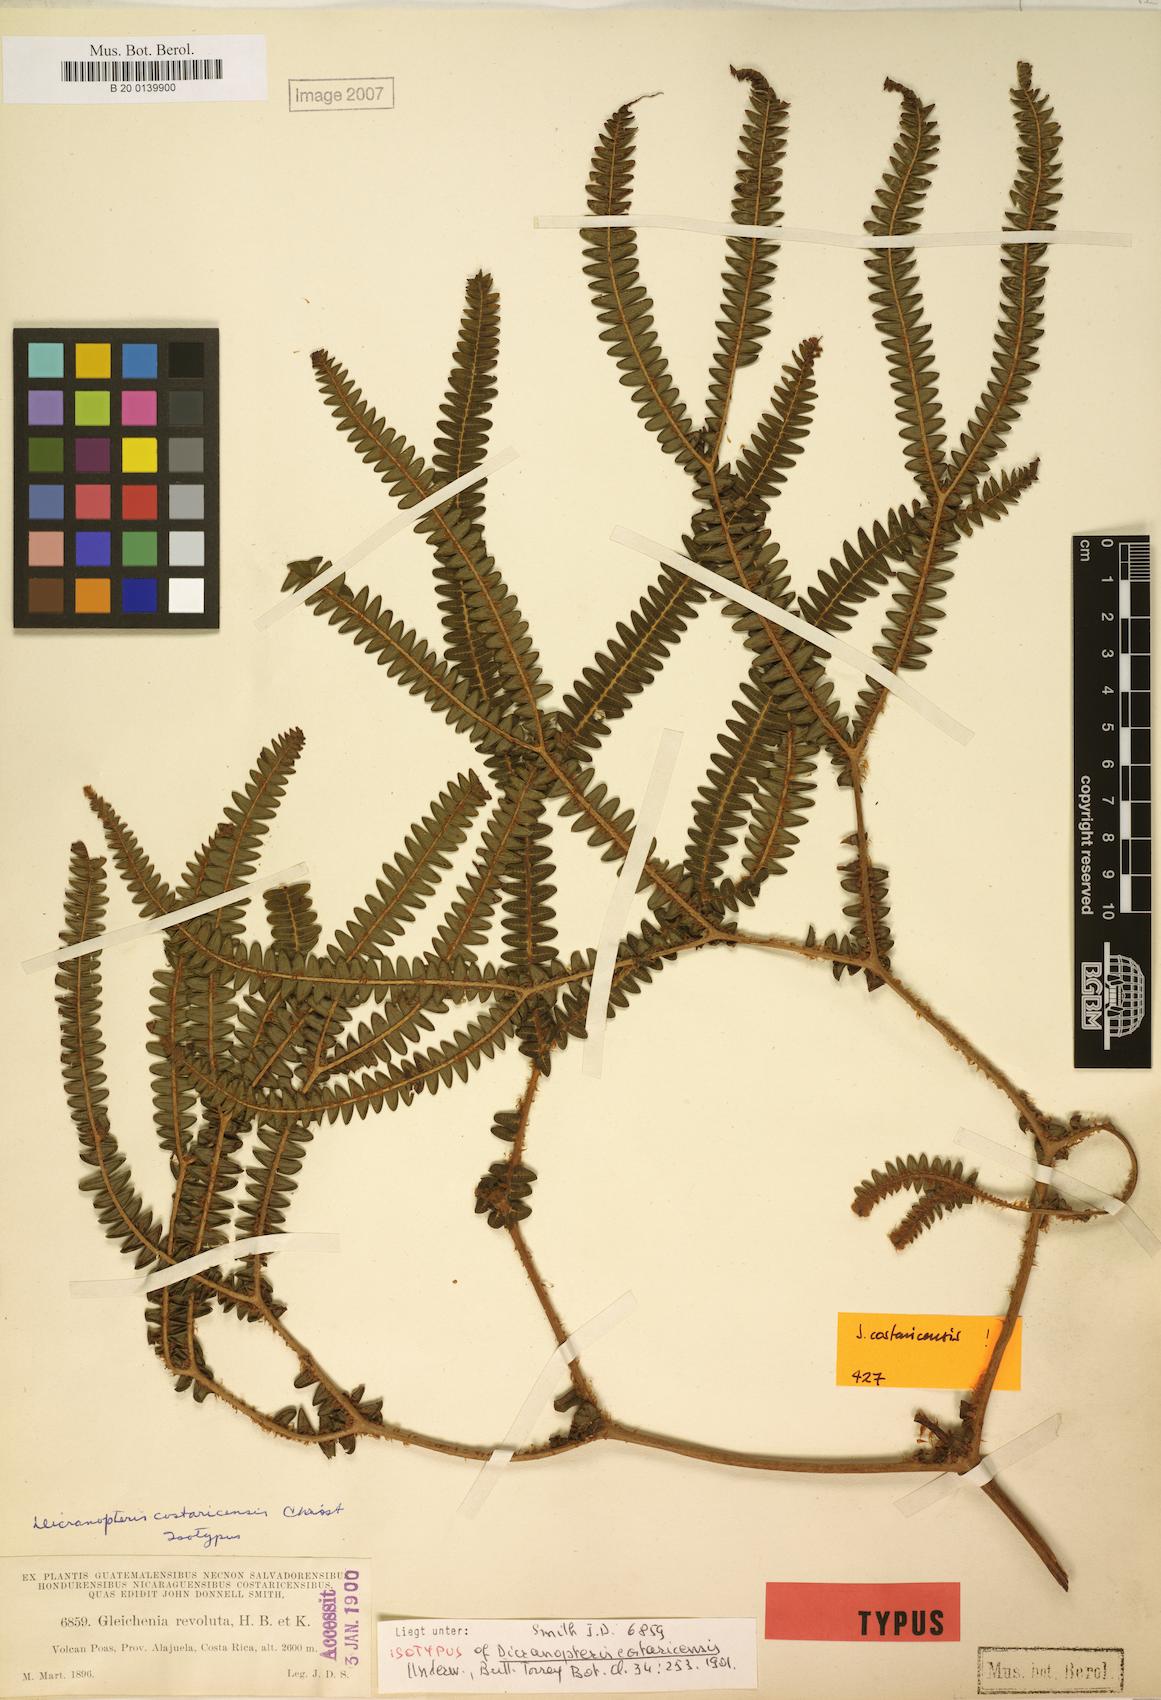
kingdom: Plantae
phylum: Tracheophyta
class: Polypodiopsida
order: Gleicheniales
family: Gleicheniaceae
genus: Sticherus
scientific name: Sticherus revolutus
